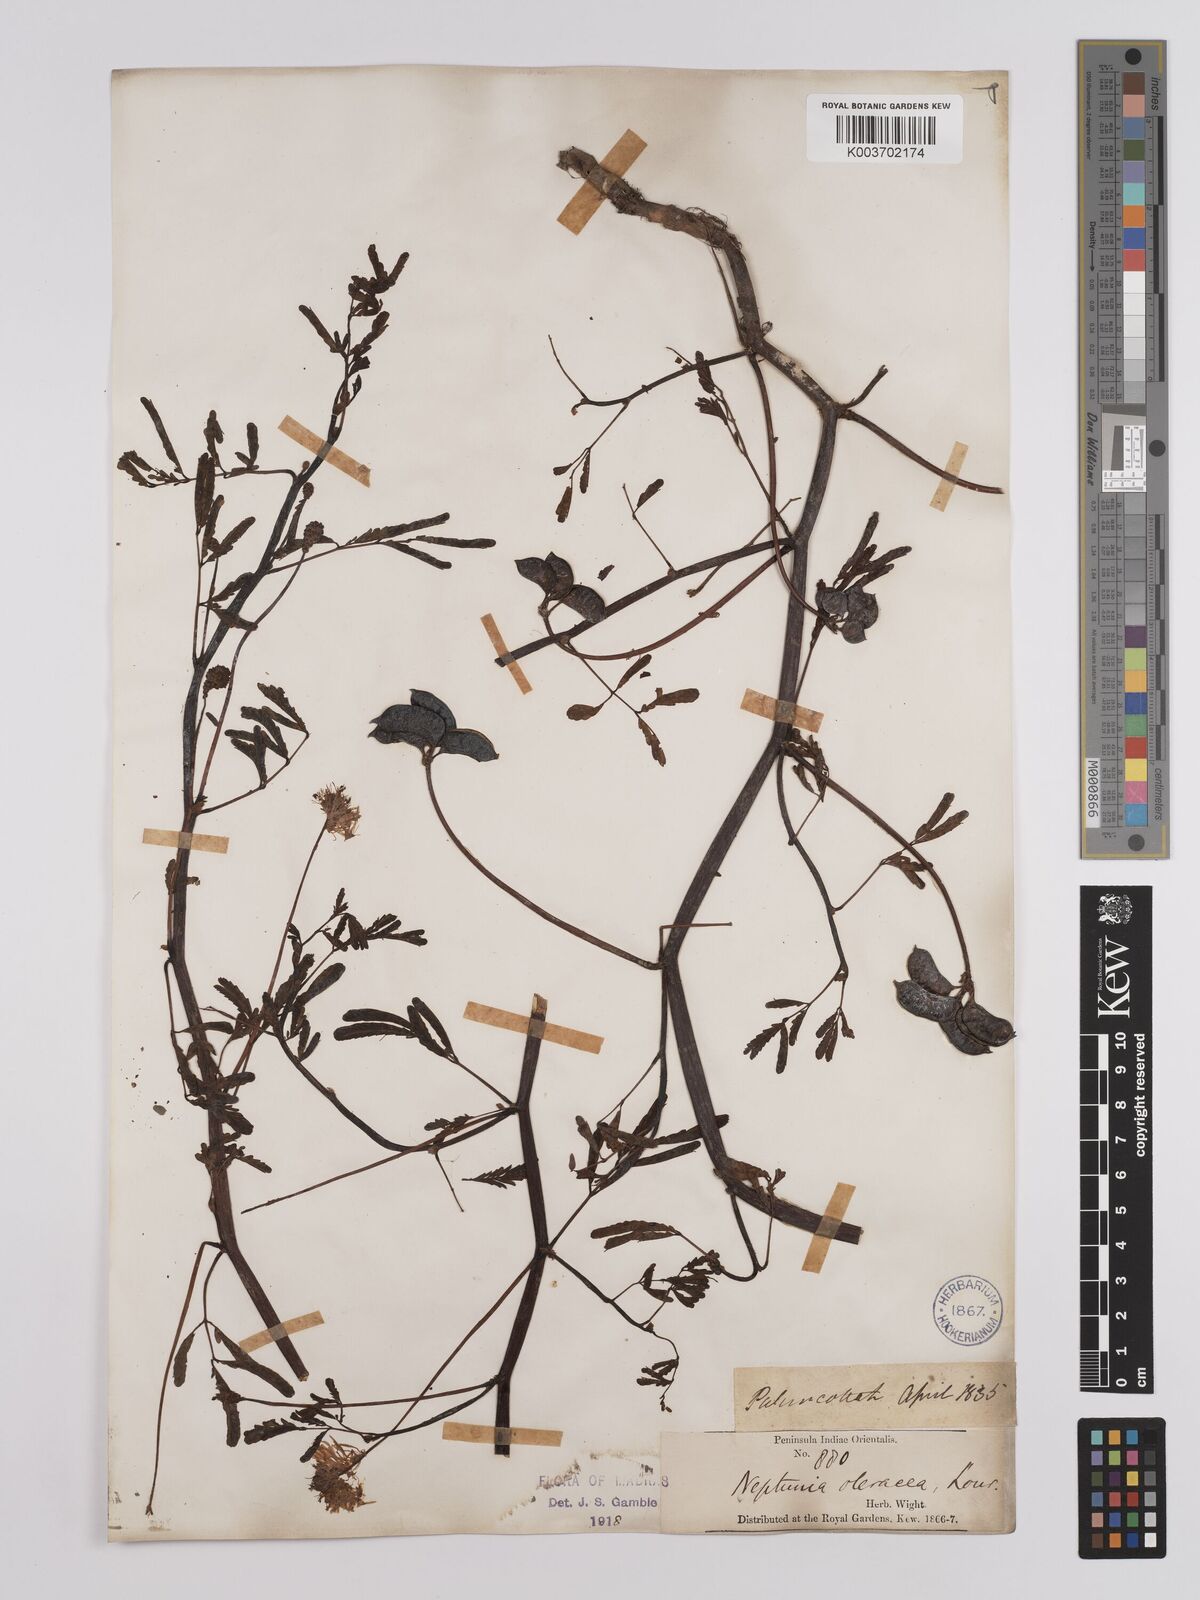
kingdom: Plantae
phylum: Tracheophyta
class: Magnoliopsida
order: Fabales
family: Fabaceae
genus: Neptunia
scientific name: Neptunia prostrata
